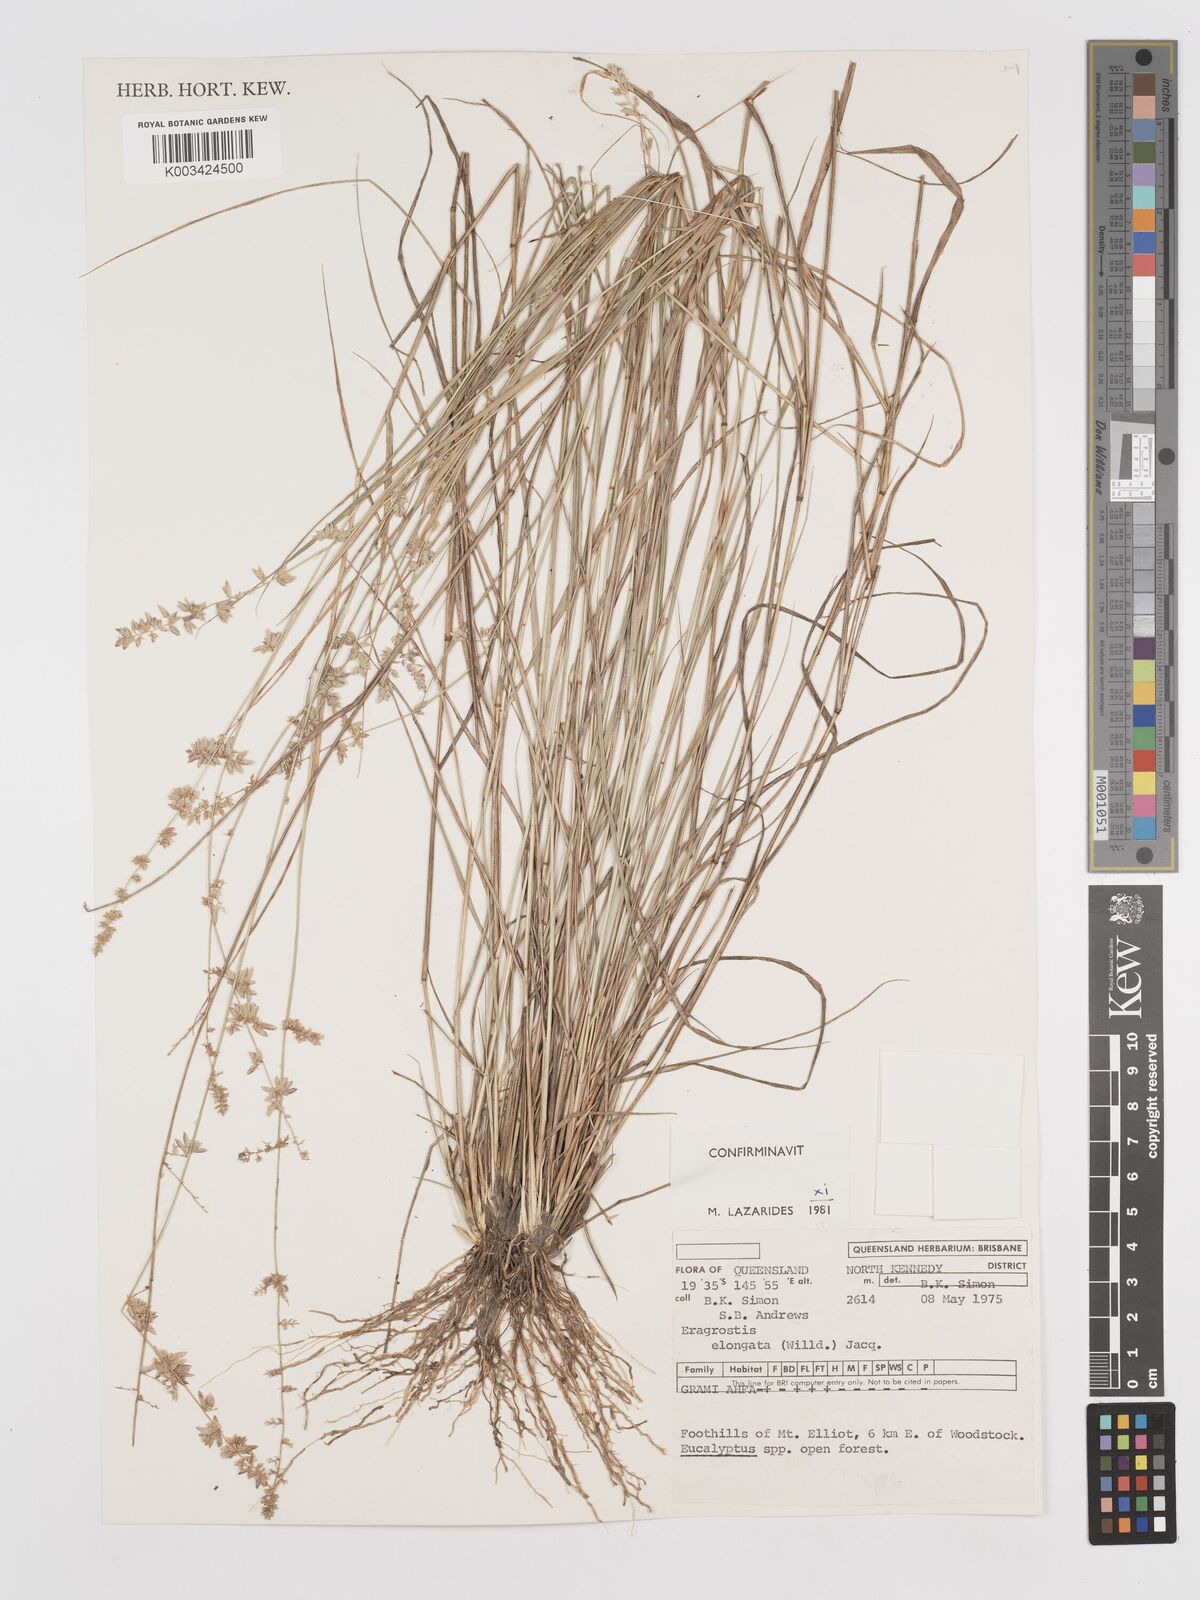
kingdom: Plantae
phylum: Tracheophyta
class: Liliopsida
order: Poales
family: Poaceae
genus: Eragrostis
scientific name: Eragrostis elongata
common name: Long lovegrass
